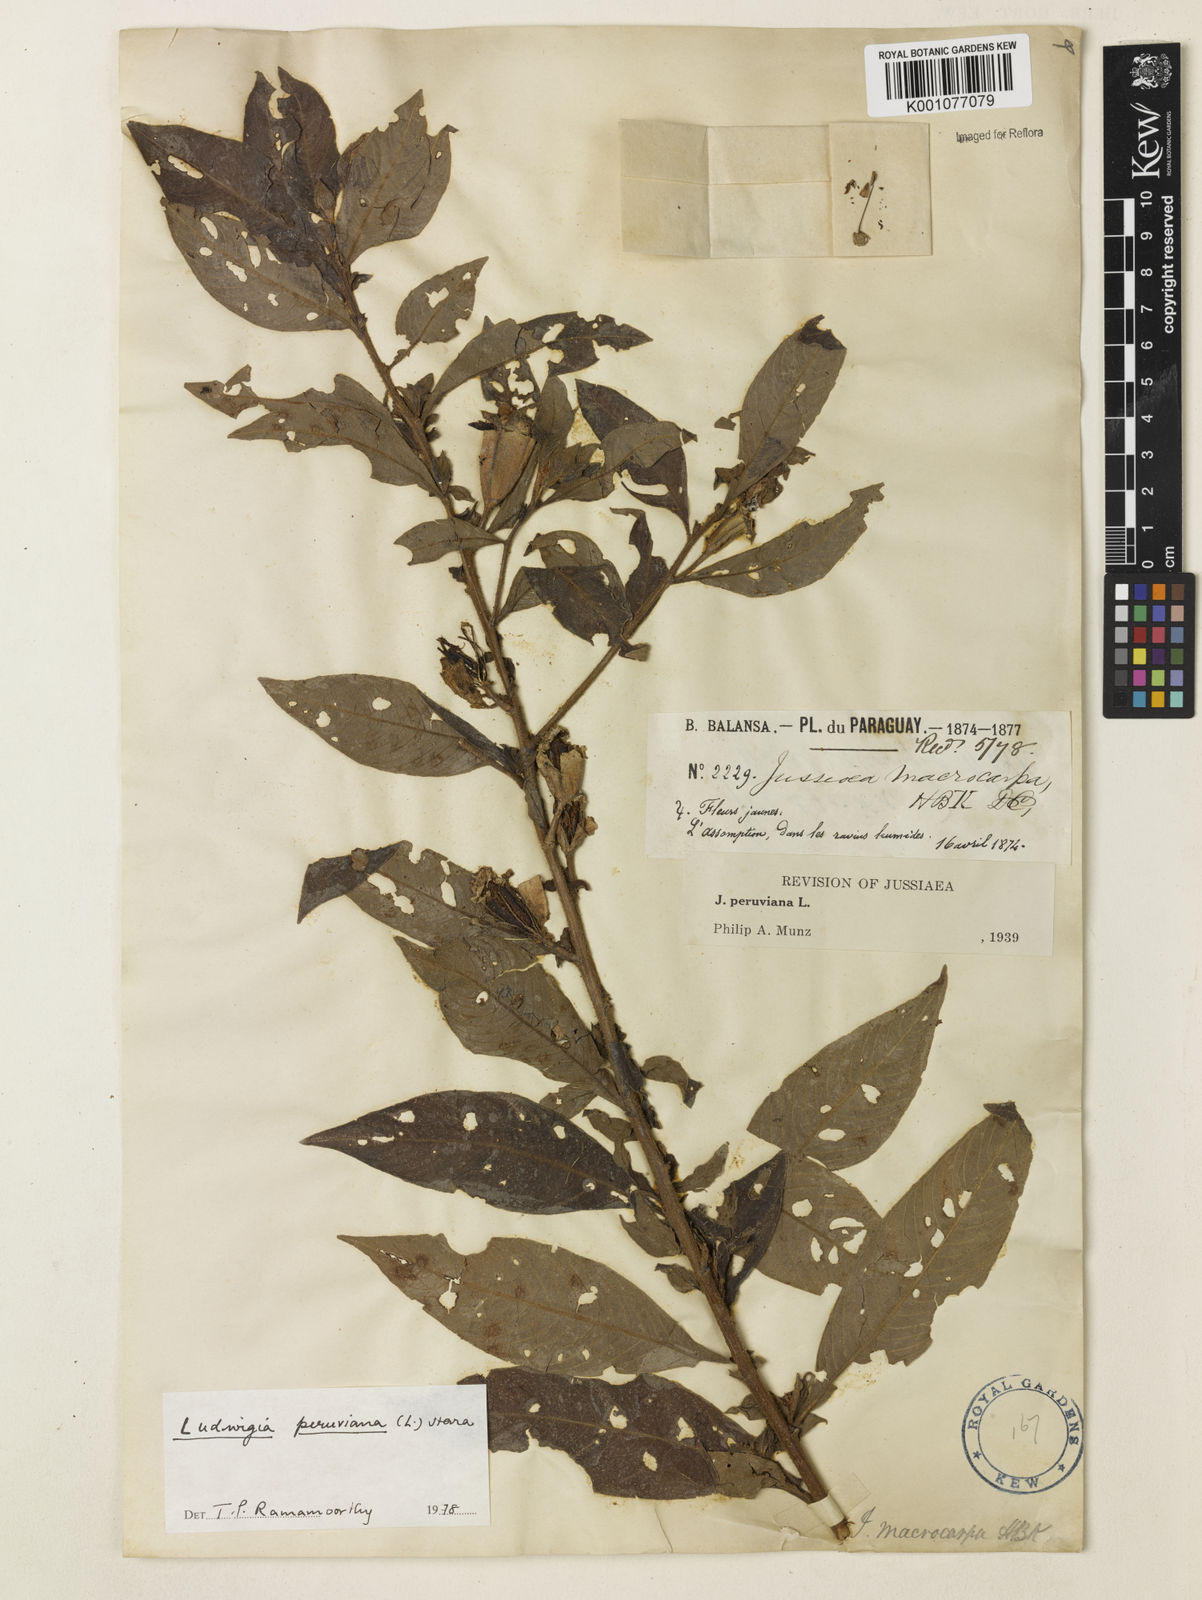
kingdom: Plantae
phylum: Tracheophyta
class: Magnoliopsida
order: Myrtales
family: Onagraceae
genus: Ludwigia
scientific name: Ludwigia peruviana
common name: Peruvian primrose-willow
